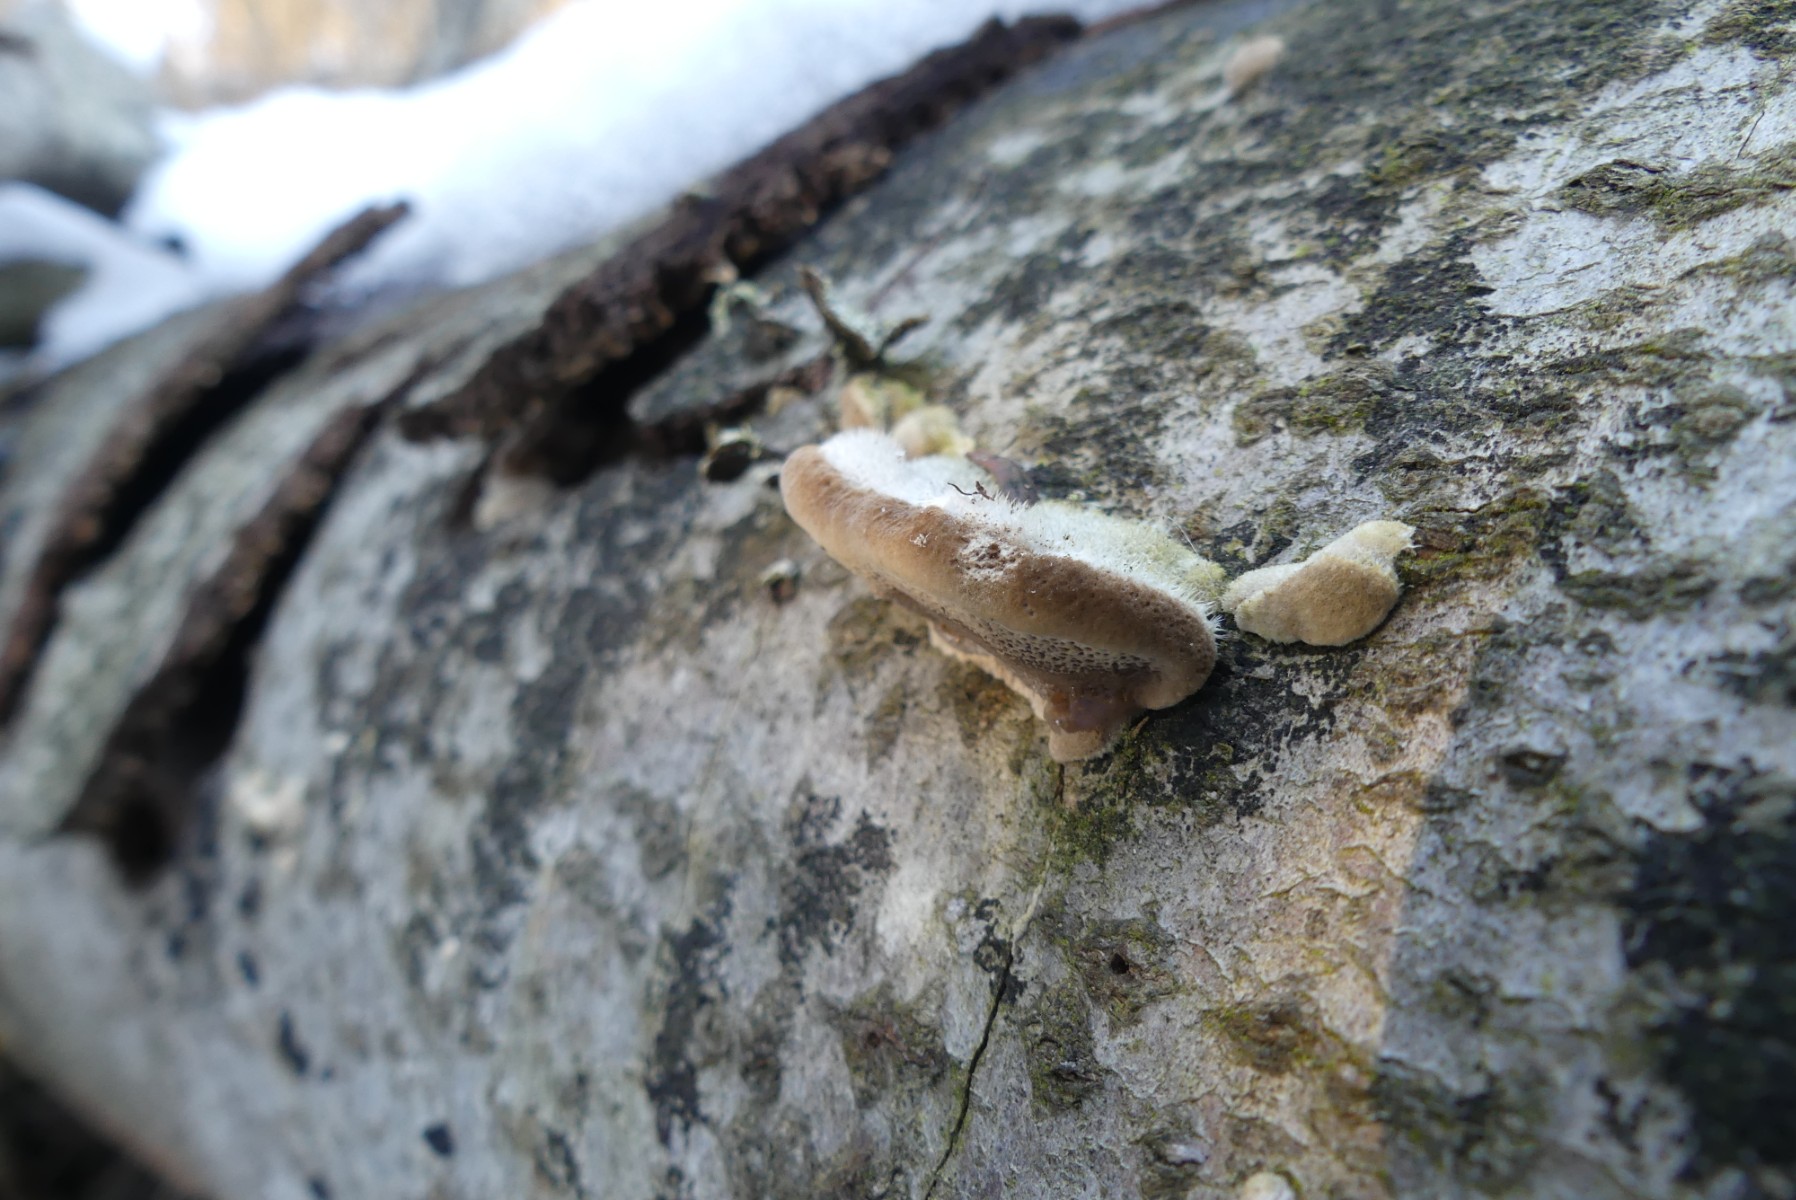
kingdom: Fungi
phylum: Basidiomycota
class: Agaricomycetes
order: Polyporales
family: Polyporaceae
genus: Trametes
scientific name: Trametes hirsuta
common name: håret læderporesvamp
